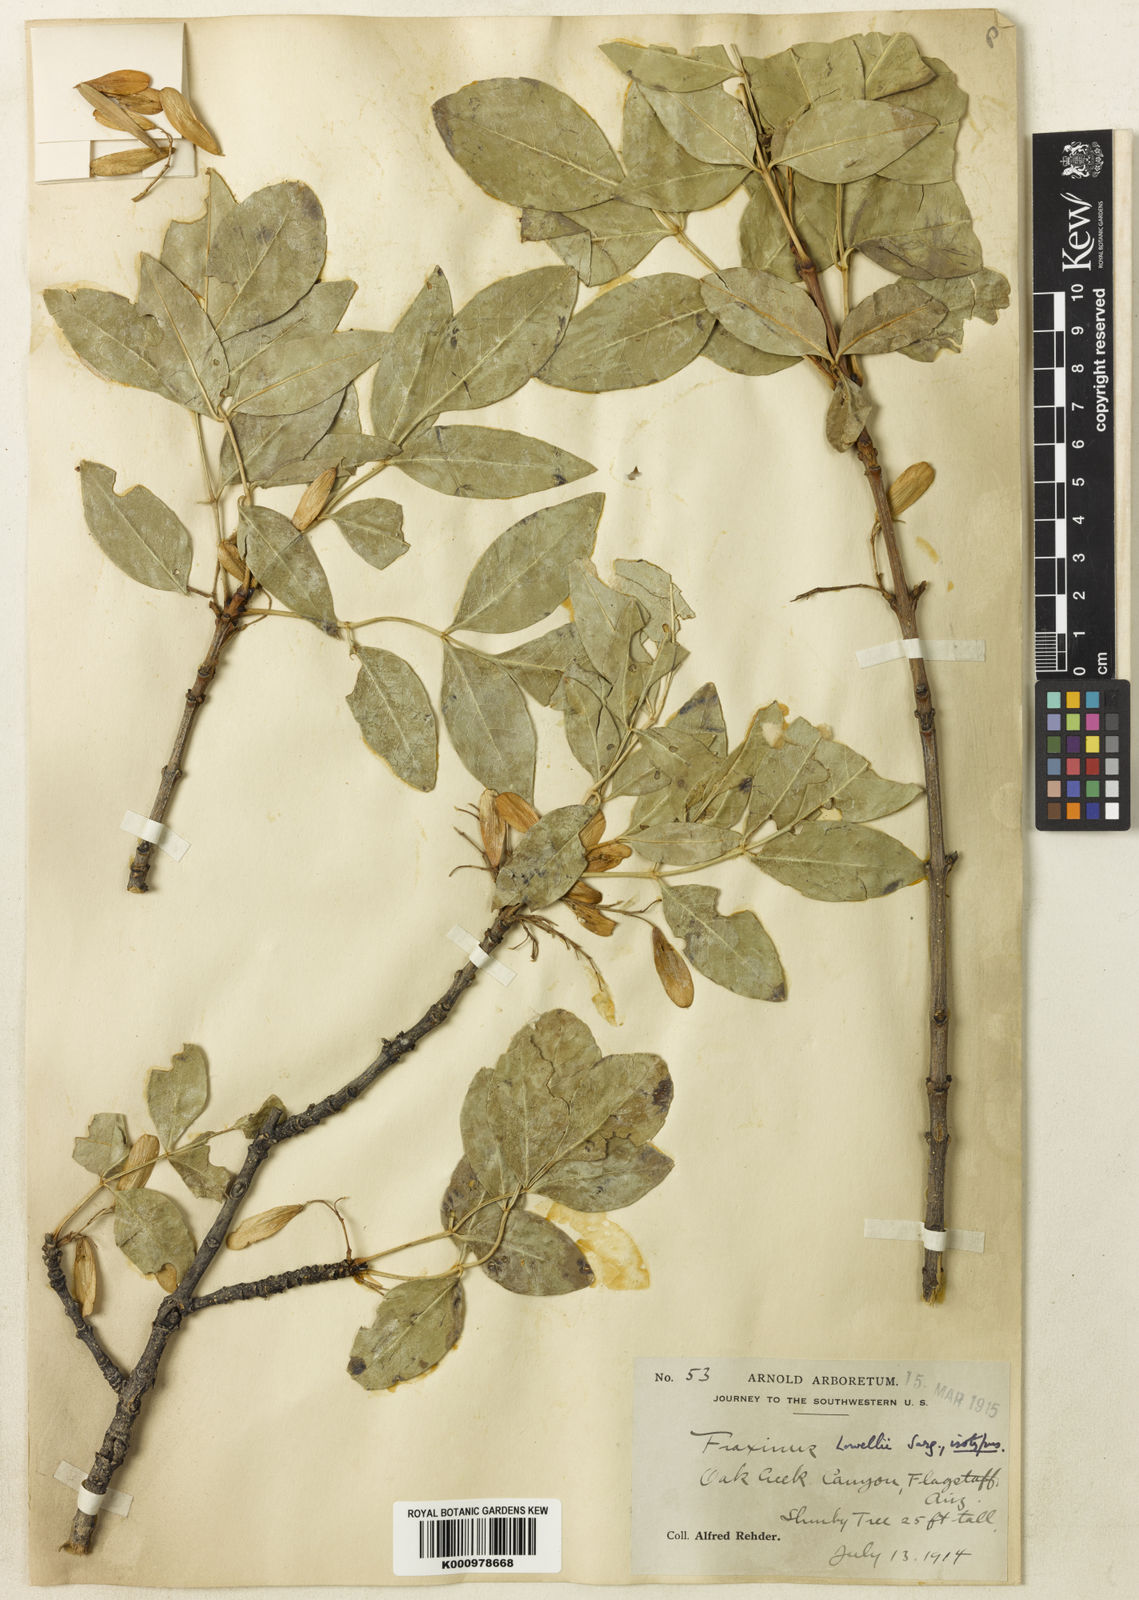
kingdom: Plantae
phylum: Tracheophyta
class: Magnoliopsida
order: Lamiales
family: Oleaceae
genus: Fraxinus
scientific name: Fraxinus anomala
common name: Utah ash
